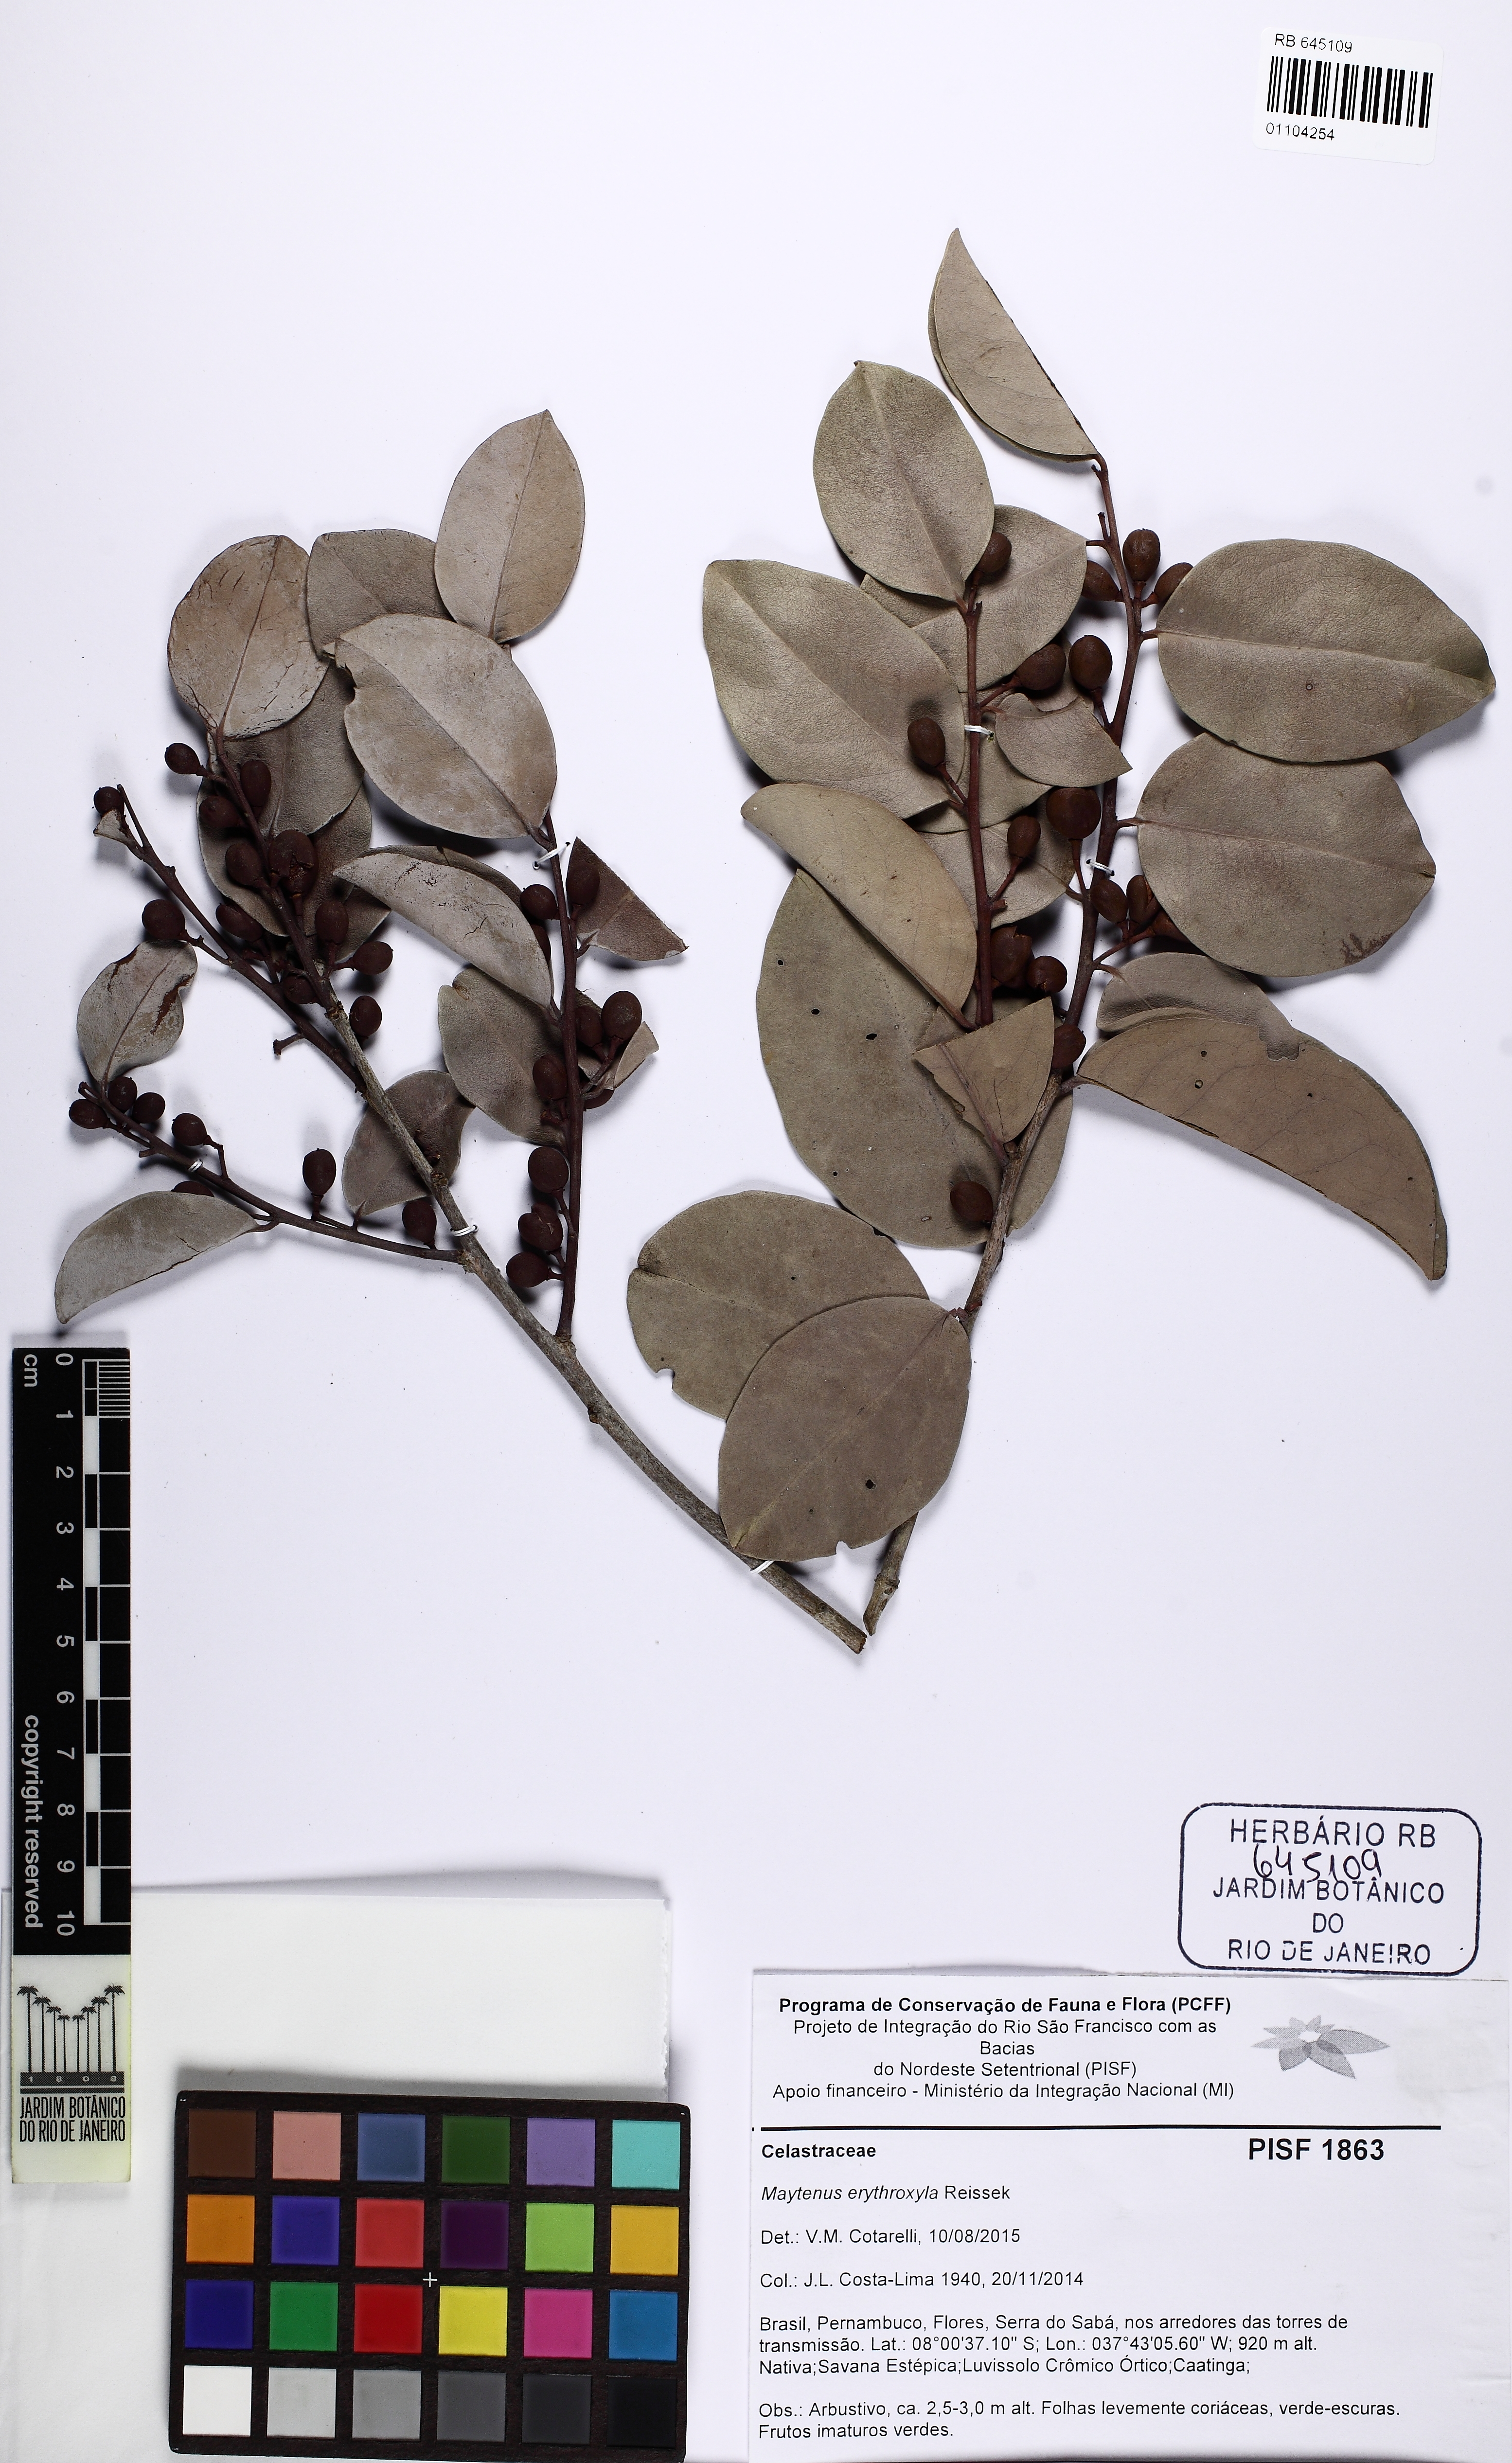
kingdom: Plantae
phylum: Tracheophyta
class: Magnoliopsida
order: Celastrales
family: Celastraceae
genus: Monteverdia
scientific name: Monteverdia erythroxylon
